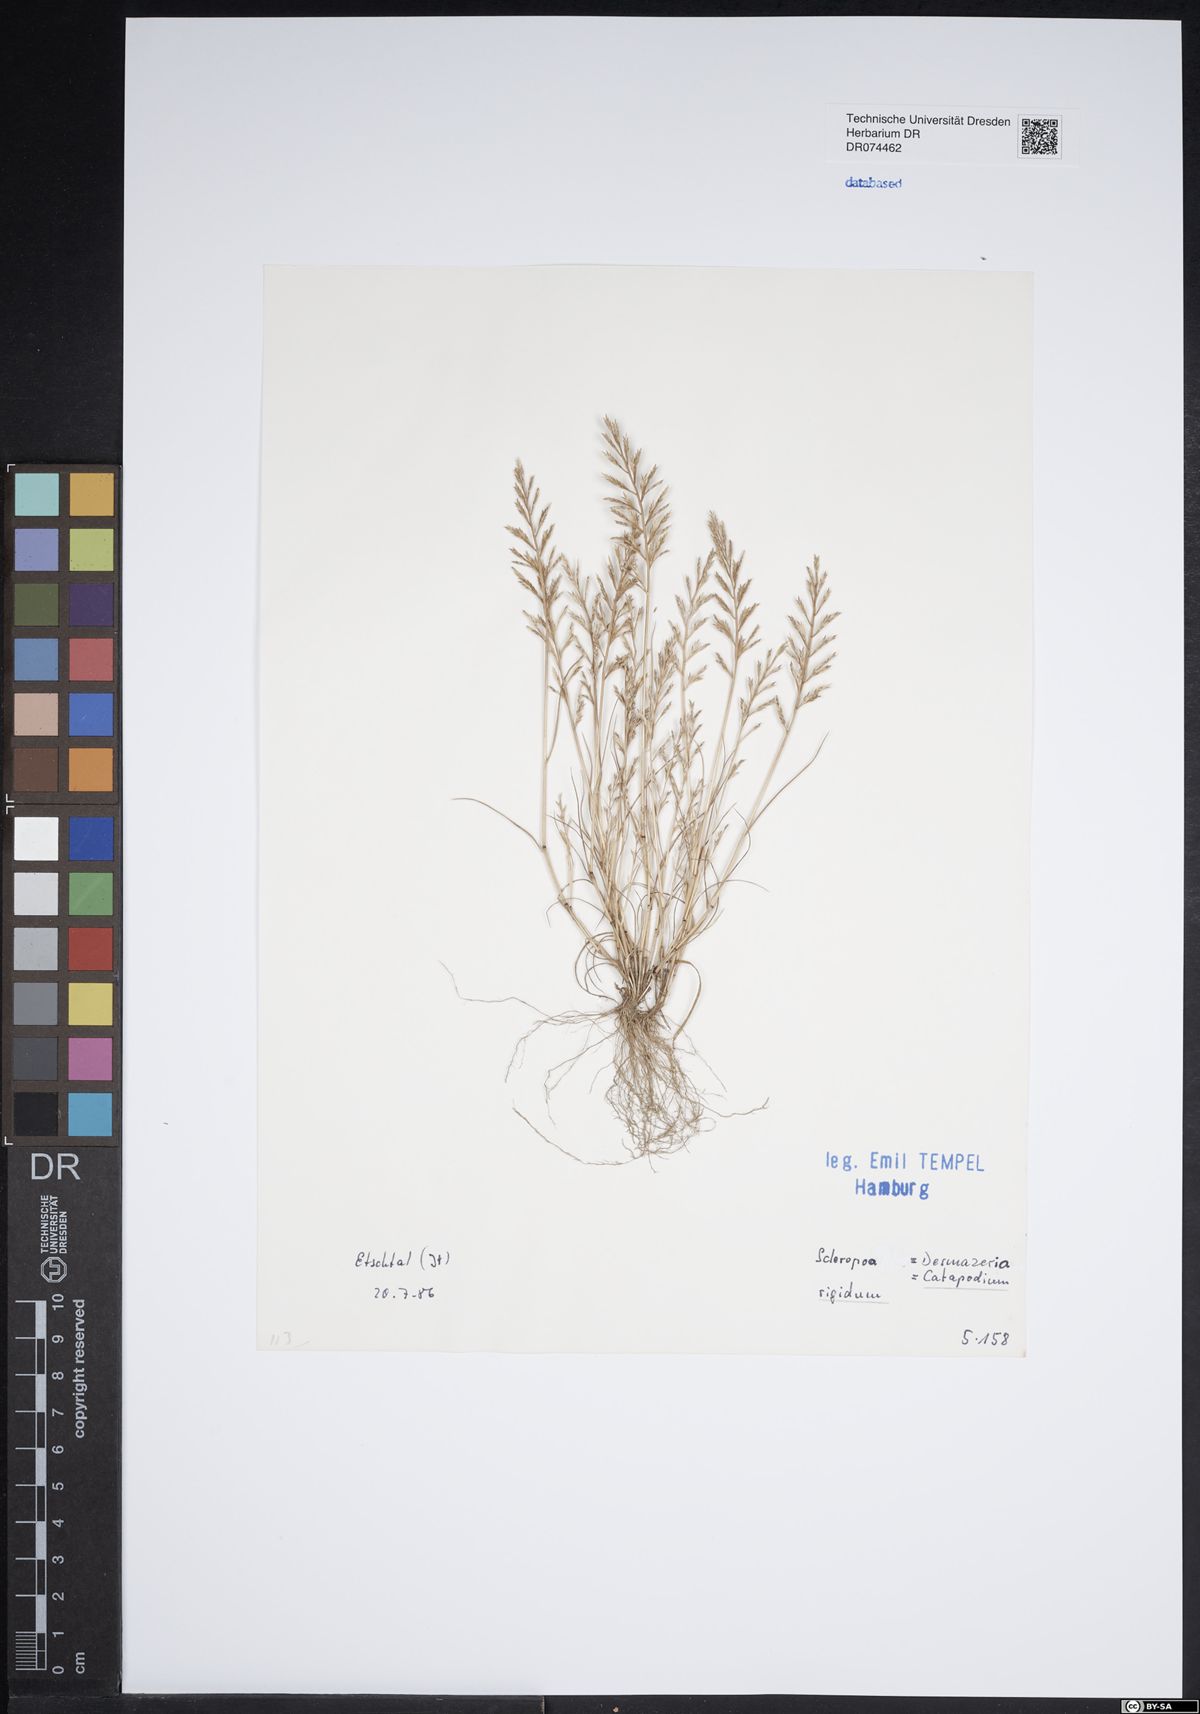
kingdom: Plantae
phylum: Tracheophyta
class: Liliopsida
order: Poales
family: Poaceae
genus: Catapodium
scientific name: Catapodium rigidum
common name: Fern-grass
